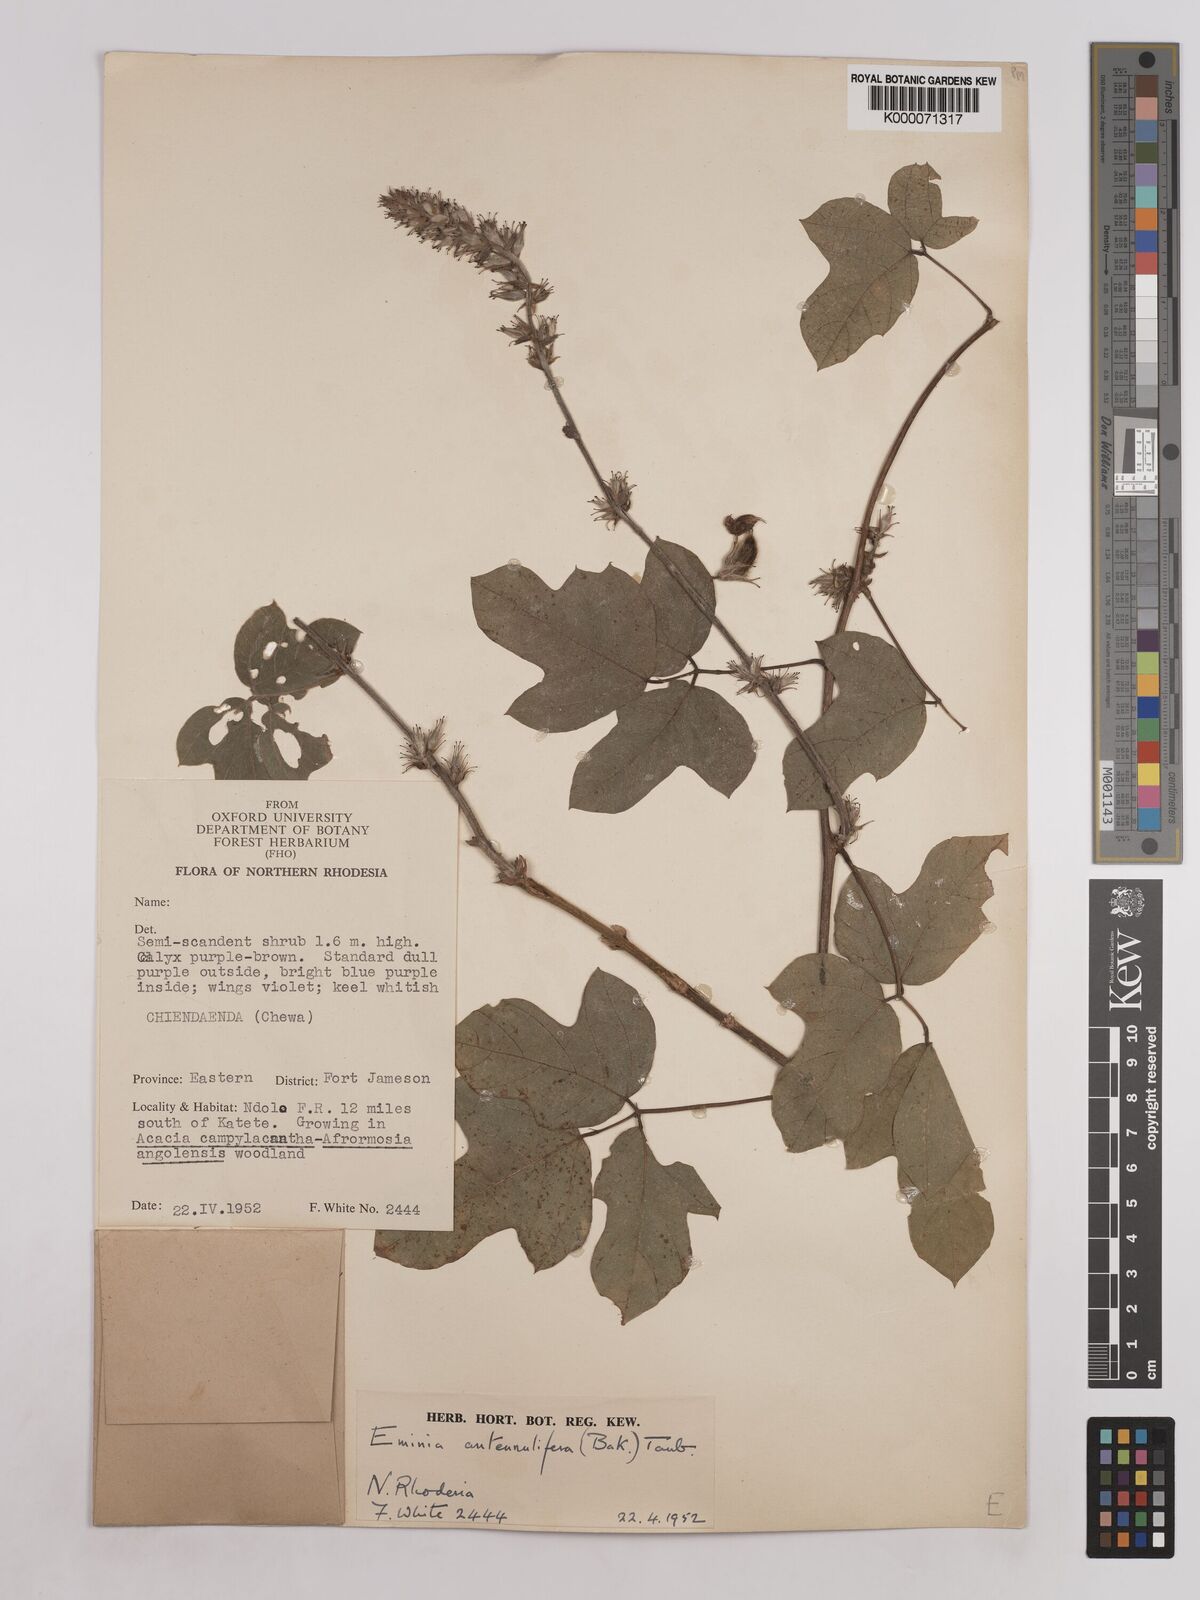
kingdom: Plantae
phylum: Tracheophyta
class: Magnoliopsida
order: Fabales
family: Fabaceae
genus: Eminia
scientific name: Eminia antennulifera
